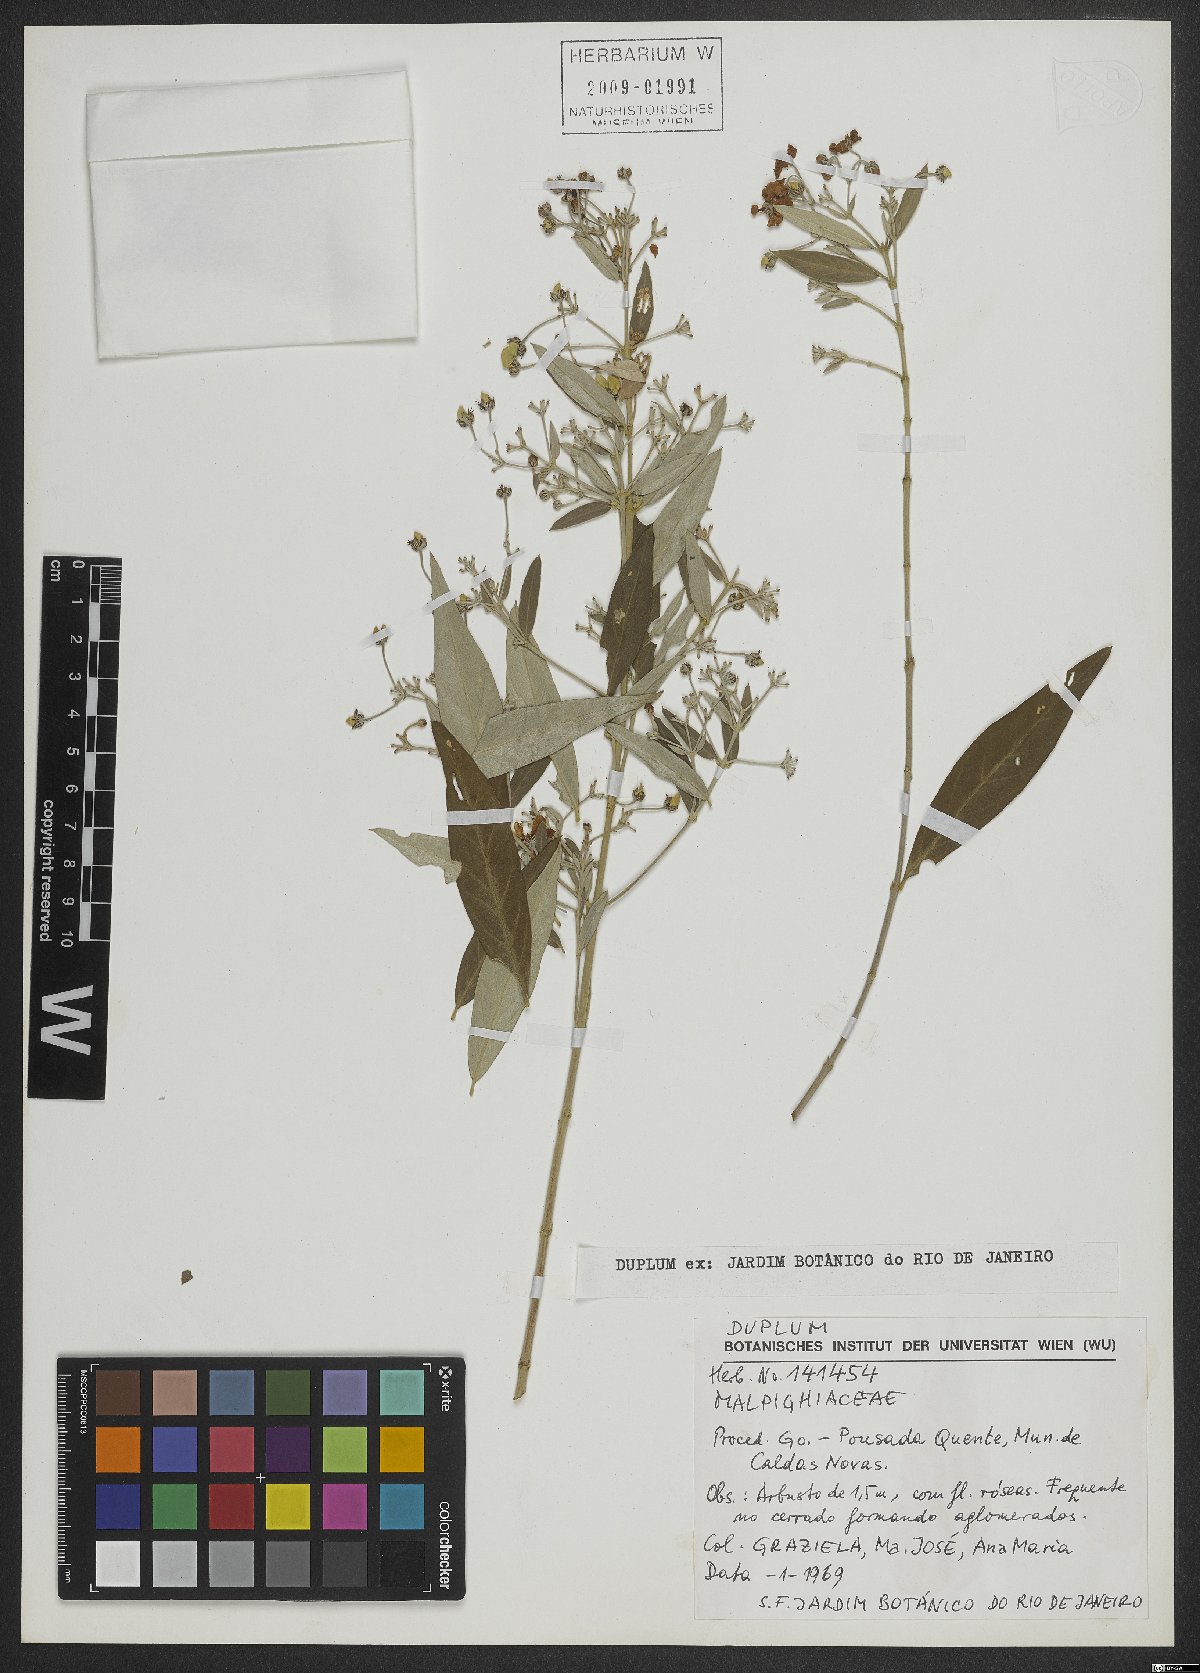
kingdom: Plantae
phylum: Tracheophyta
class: Magnoliopsida
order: Malpighiales
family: Malpighiaceae
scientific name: Malpighiaceae
